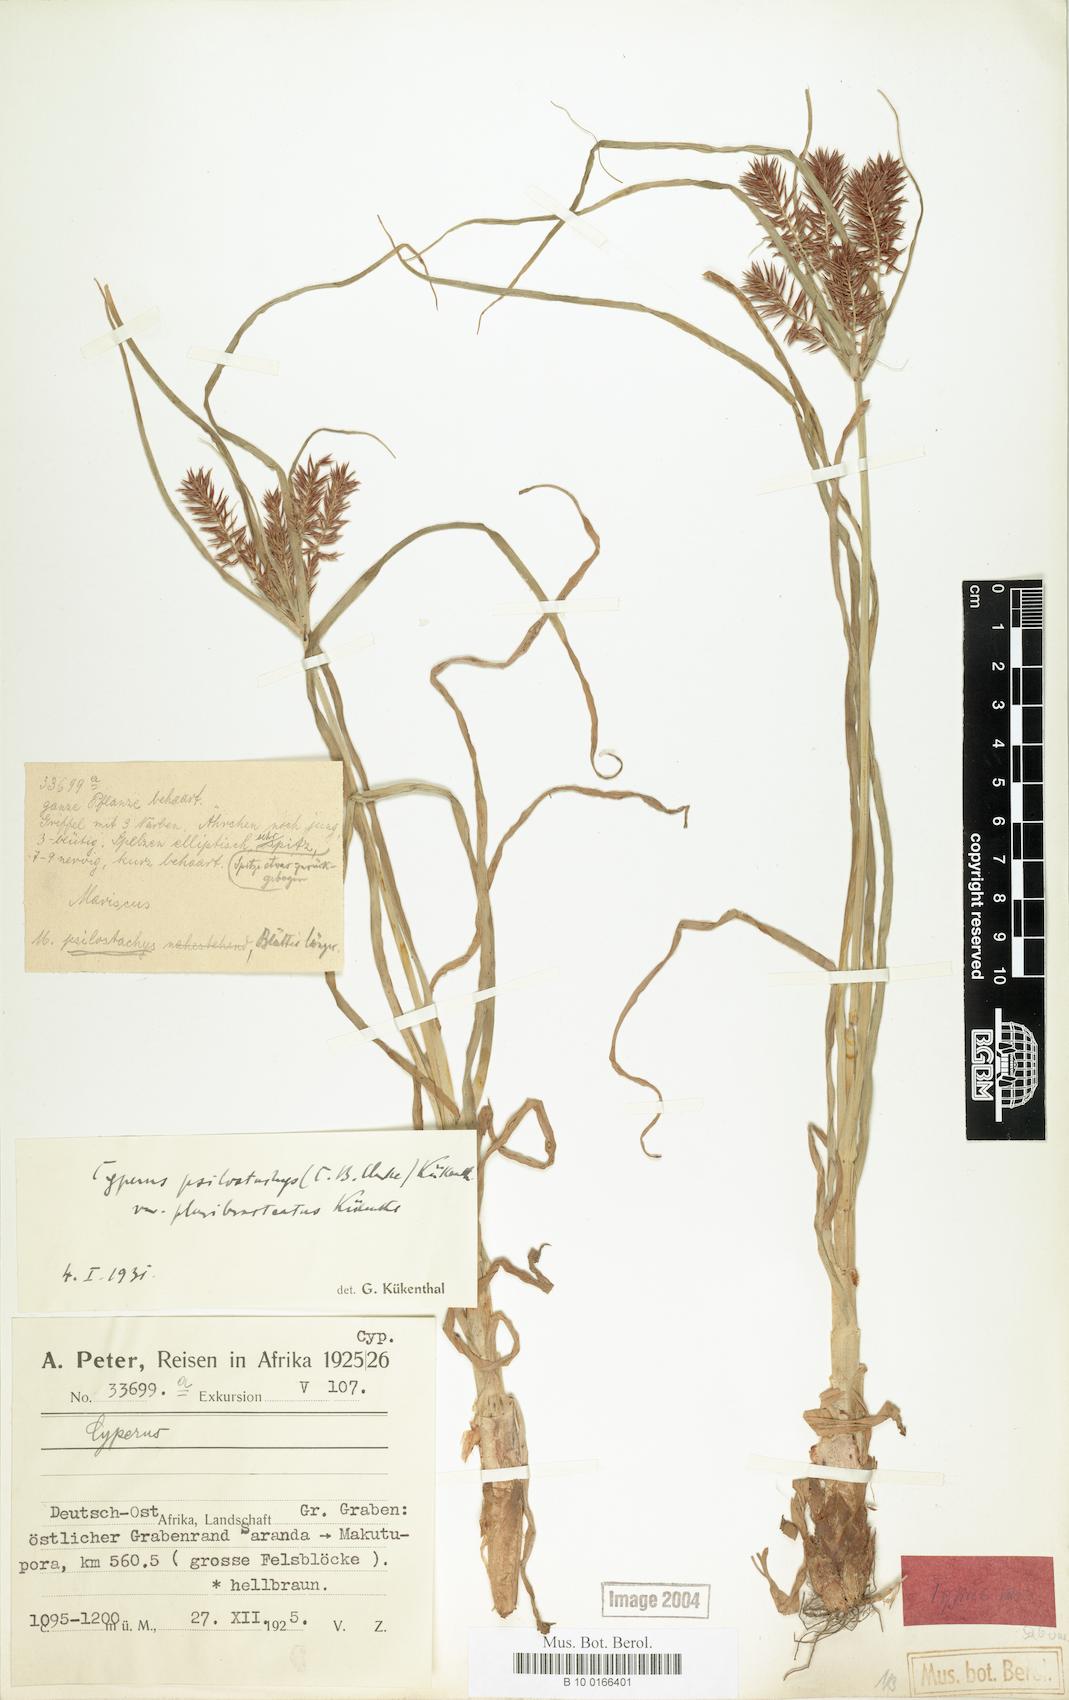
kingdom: Plantae
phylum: Tracheophyta
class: Liliopsida
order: Poales
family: Cyperaceae
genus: Cyperus
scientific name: Cyperus trigonellus
